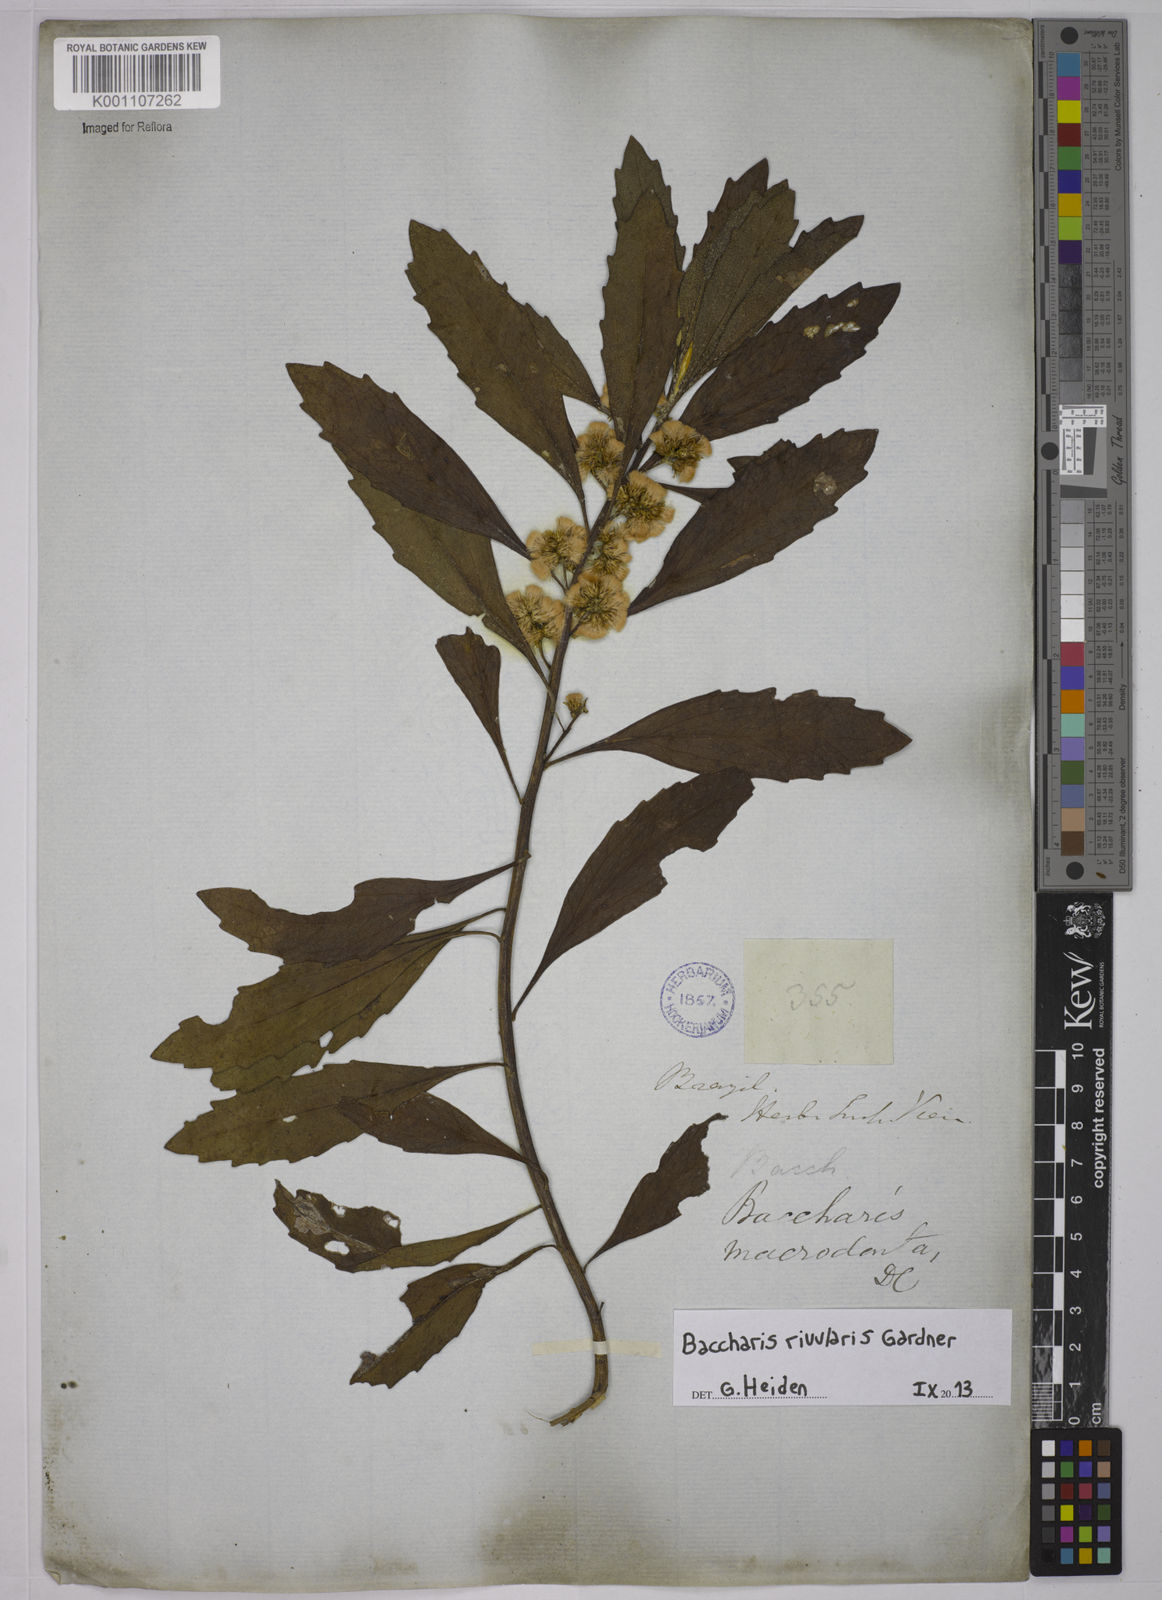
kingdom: Plantae
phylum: Tracheophyta
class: Magnoliopsida
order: Asterales
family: Asteraceae
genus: Baccharis
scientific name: Baccharis rivularis
